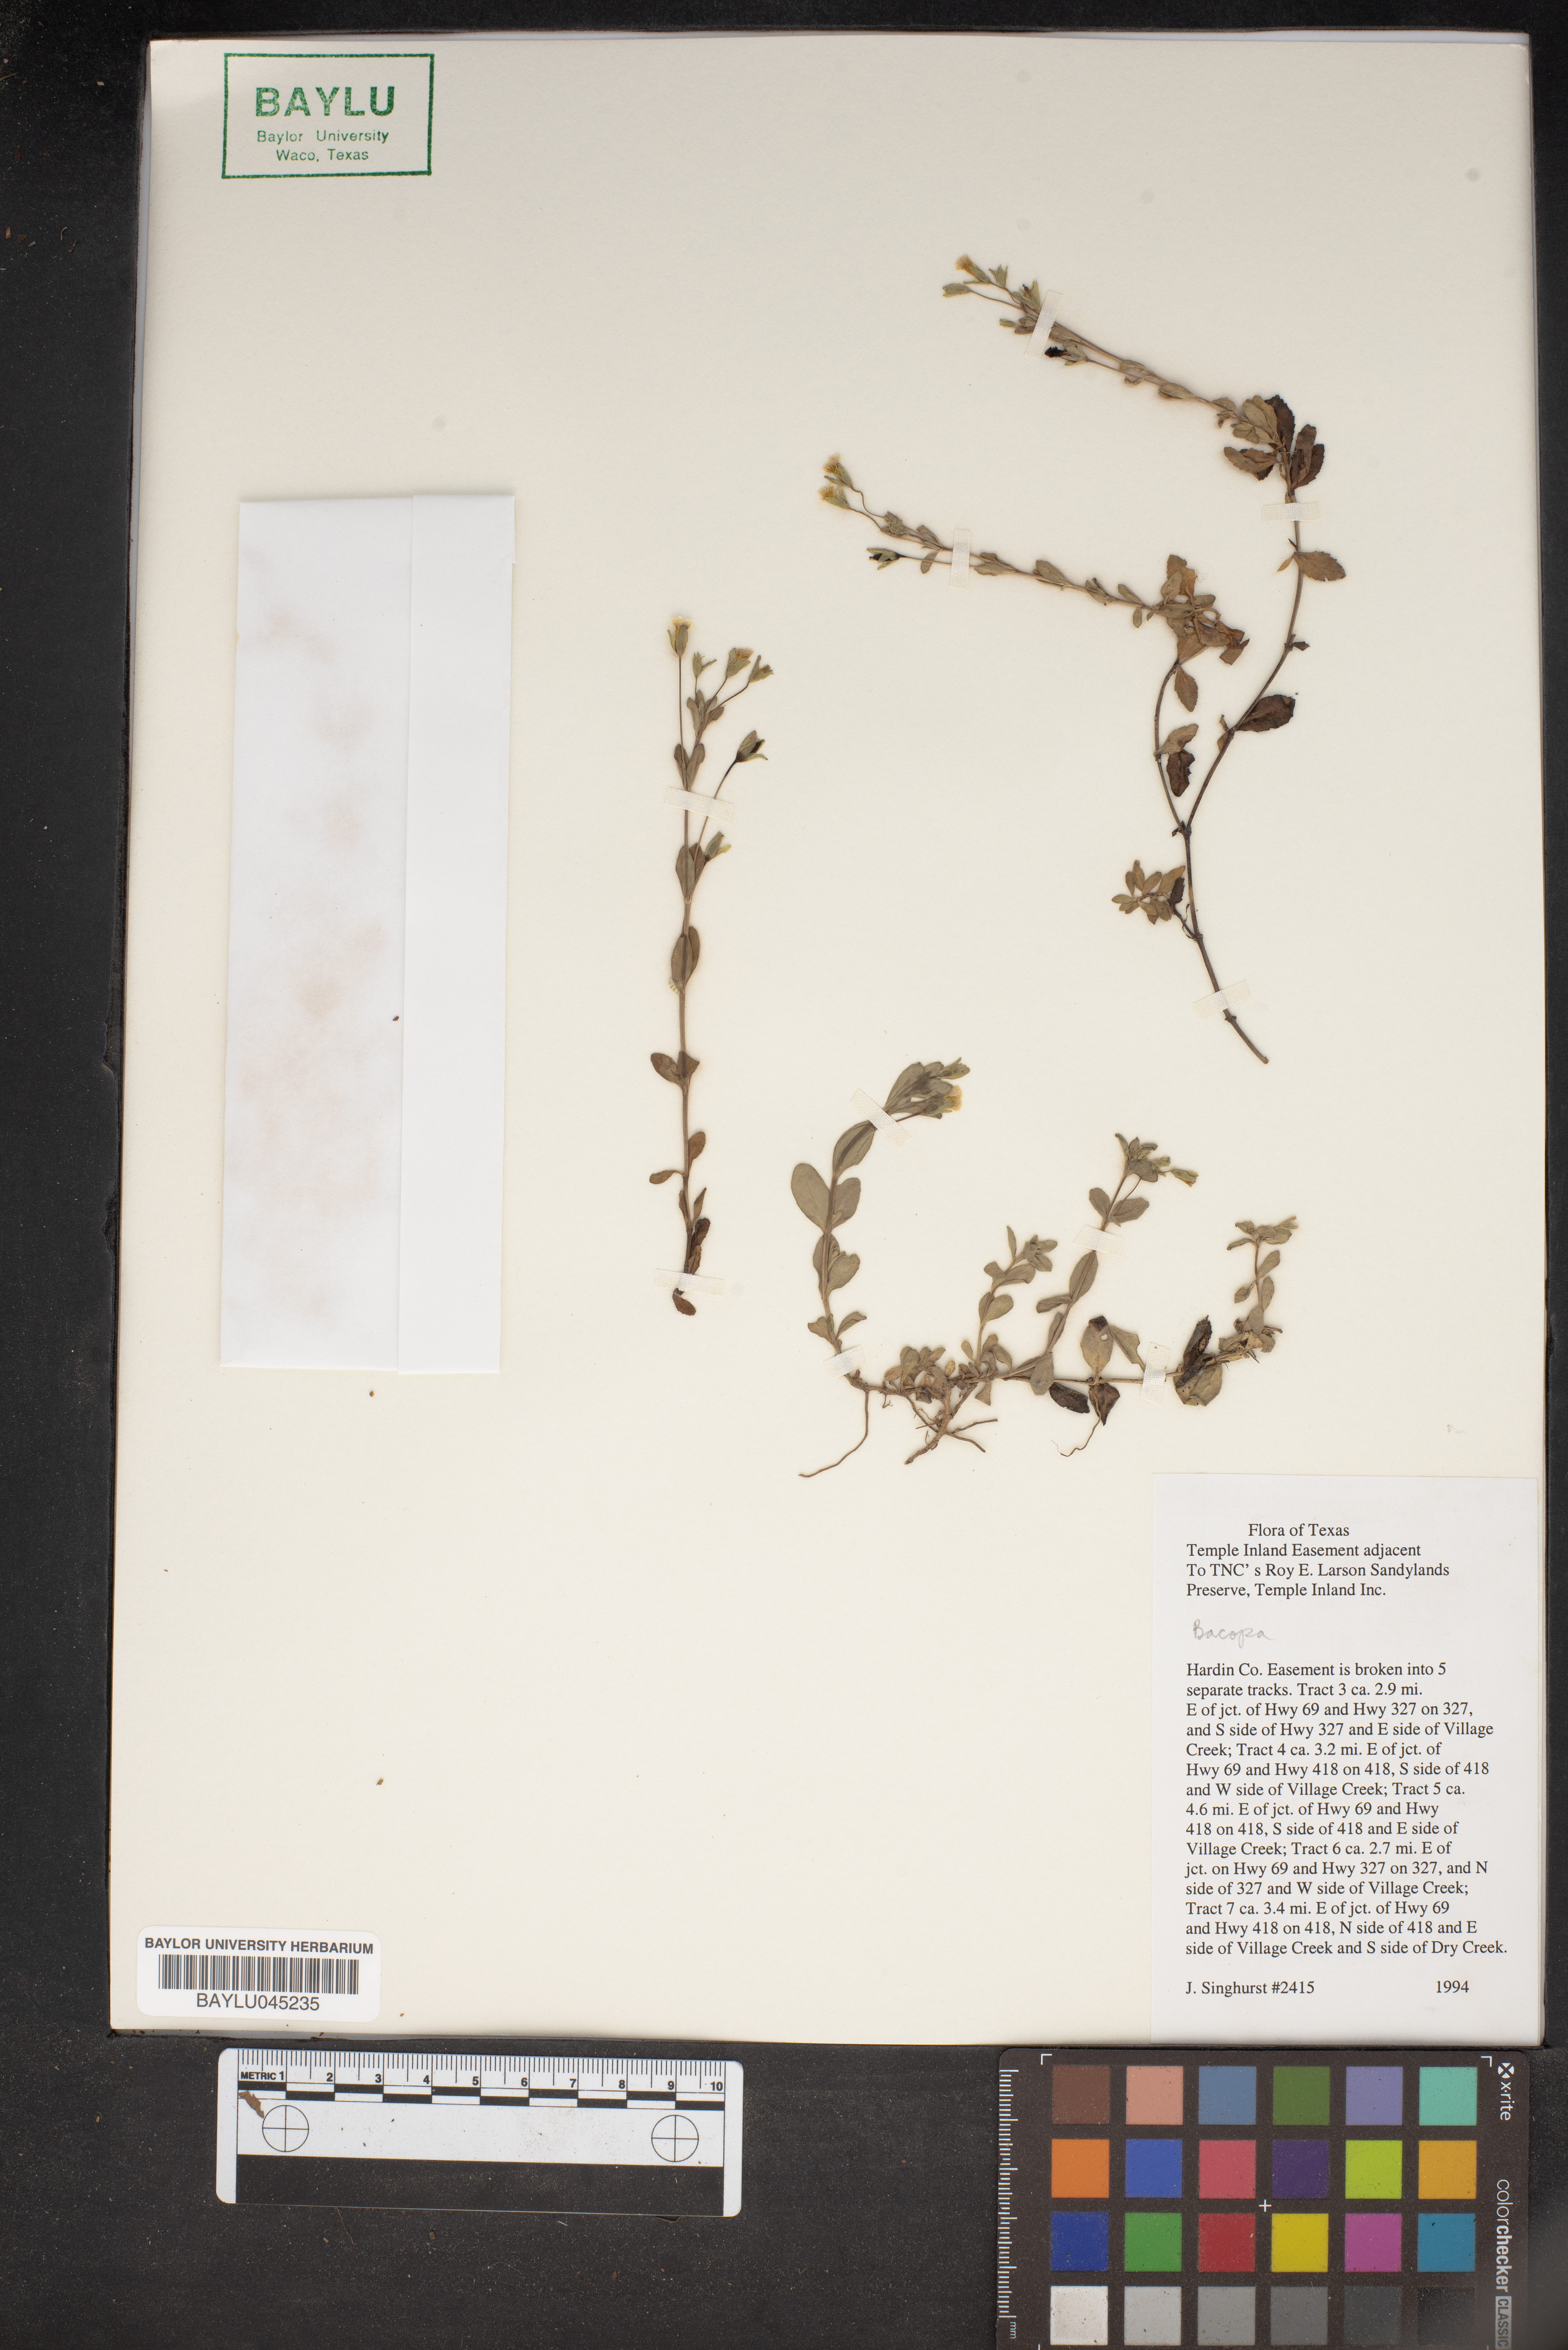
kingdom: Plantae
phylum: Tracheophyta
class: Magnoliopsida
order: Lamiales
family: Plantaginaceae
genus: Bacopa
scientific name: Bacopa
